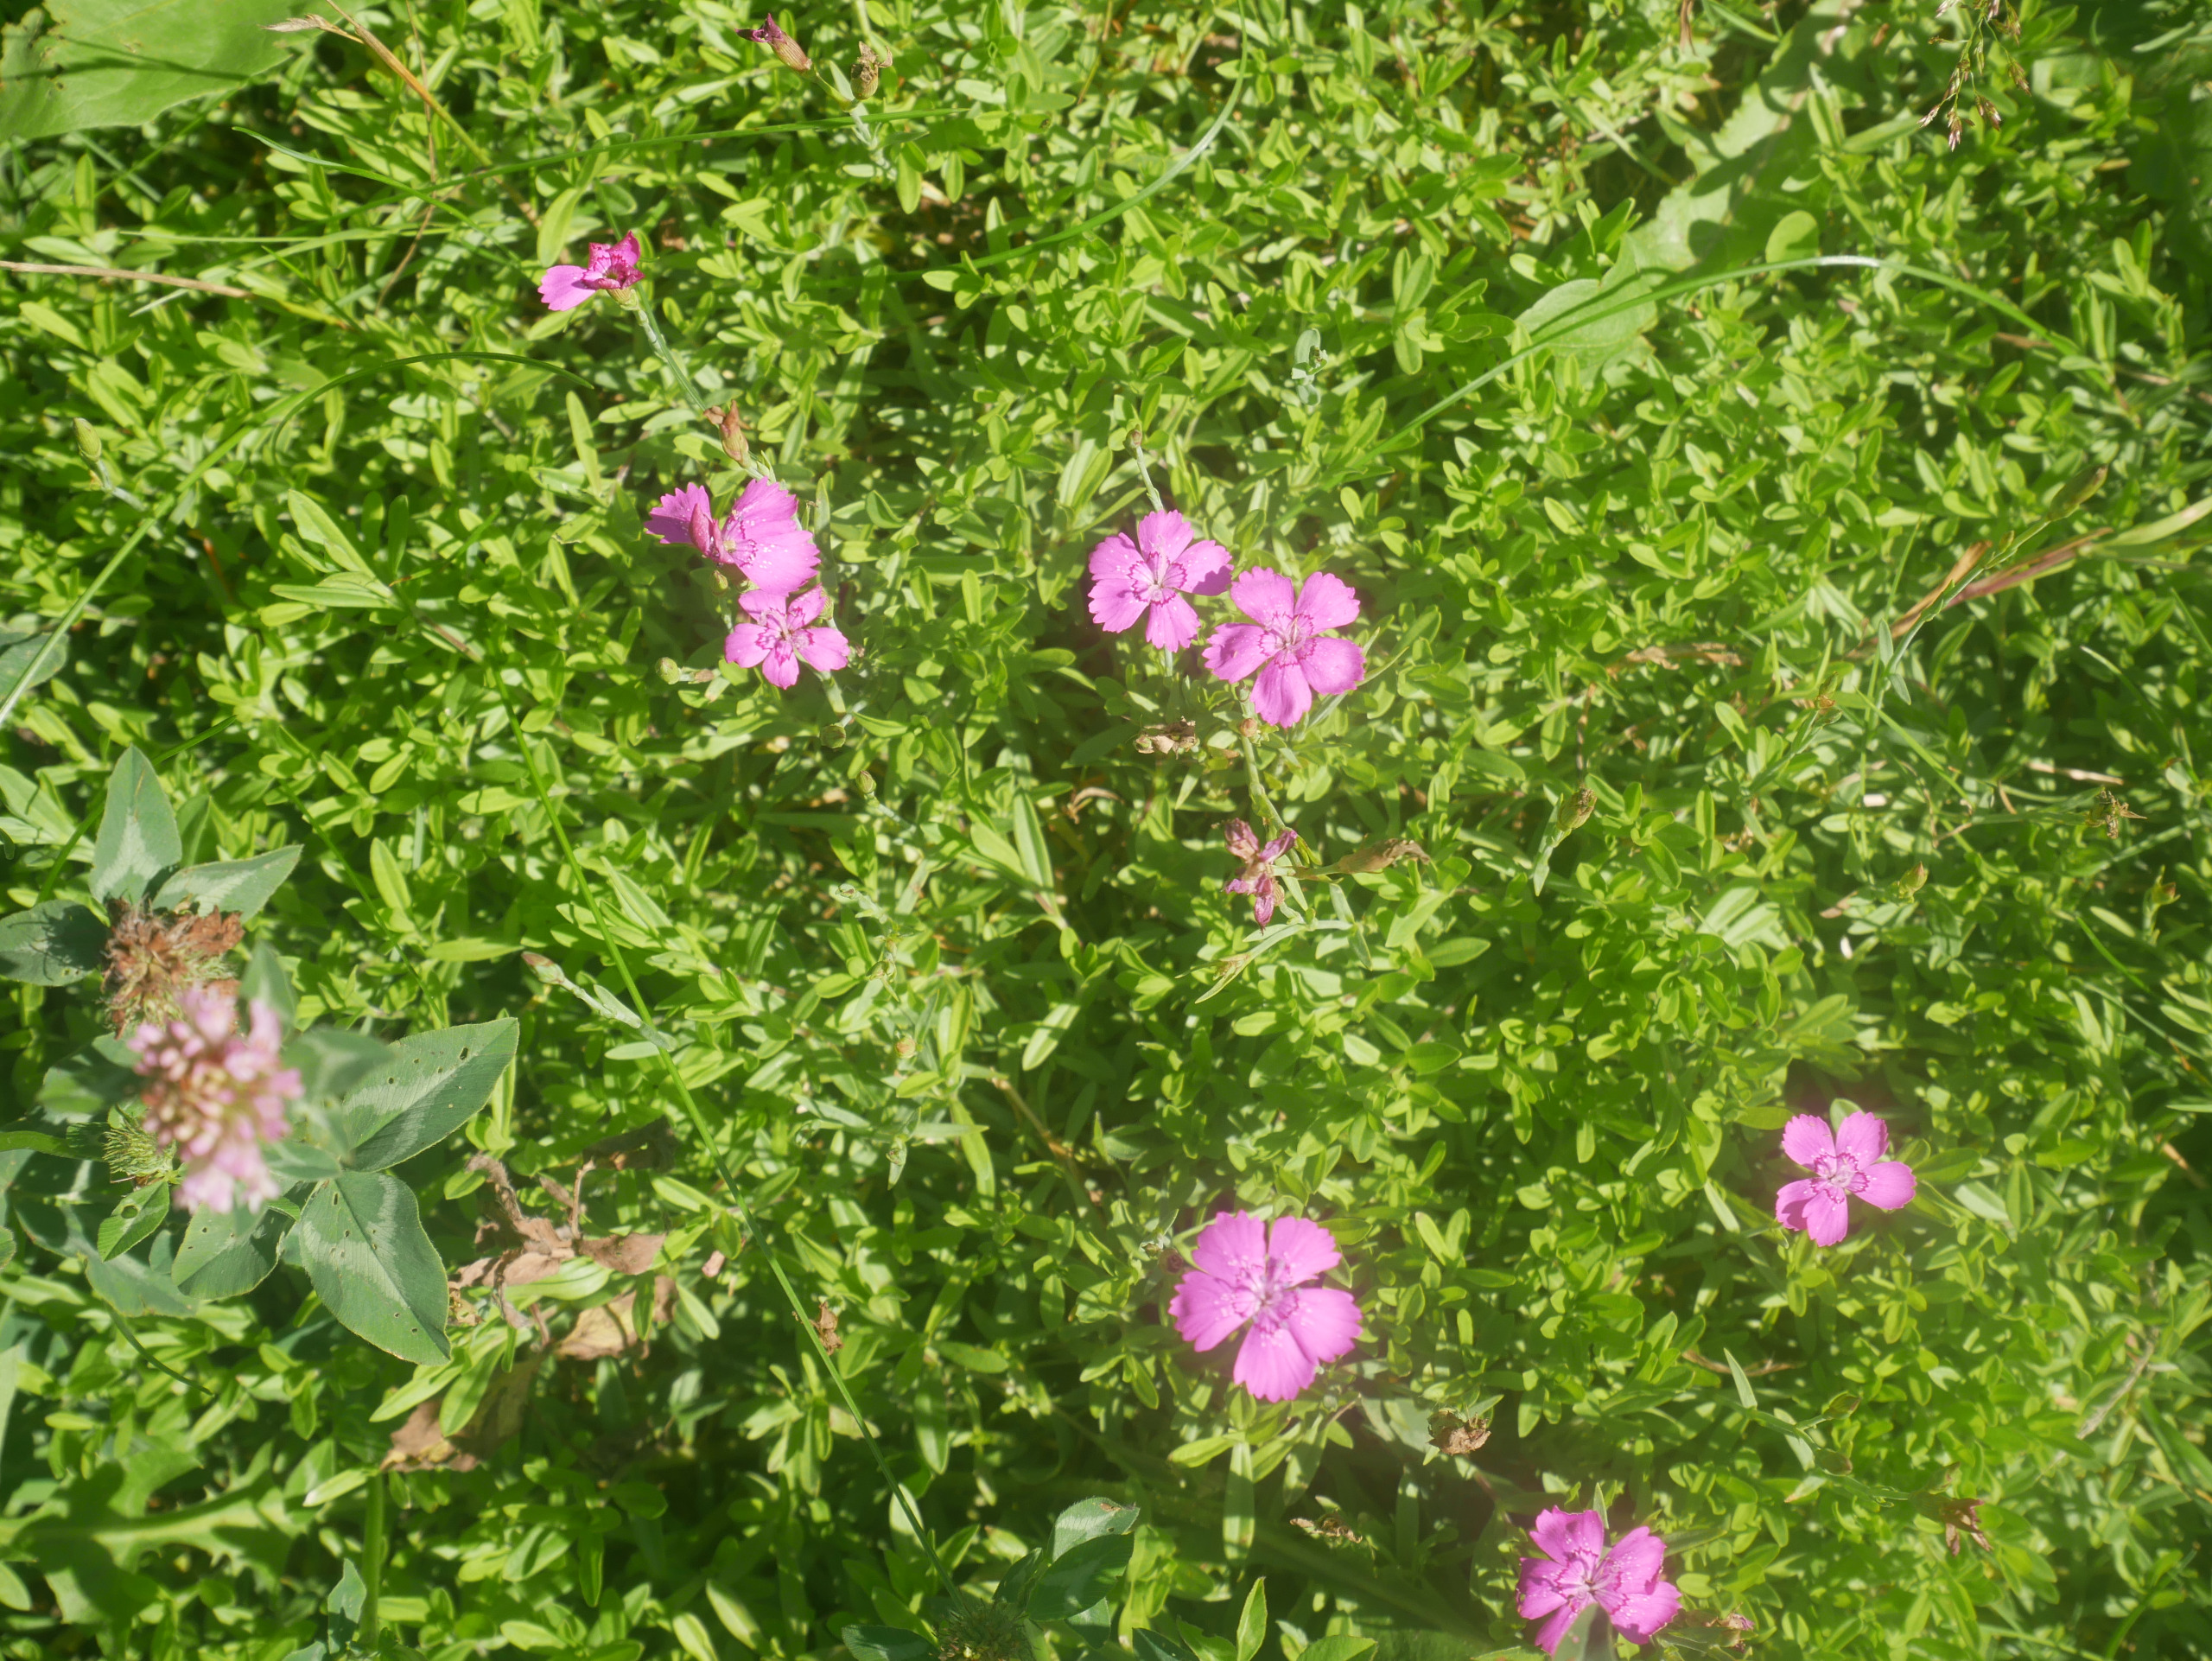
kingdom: Plantae
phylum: Tracheophyta
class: Magnoliopsida
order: Caryophyllales
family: Caryophyllaceae
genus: Dianthus
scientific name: Dianthus deltoides
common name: Bakke-nellike
